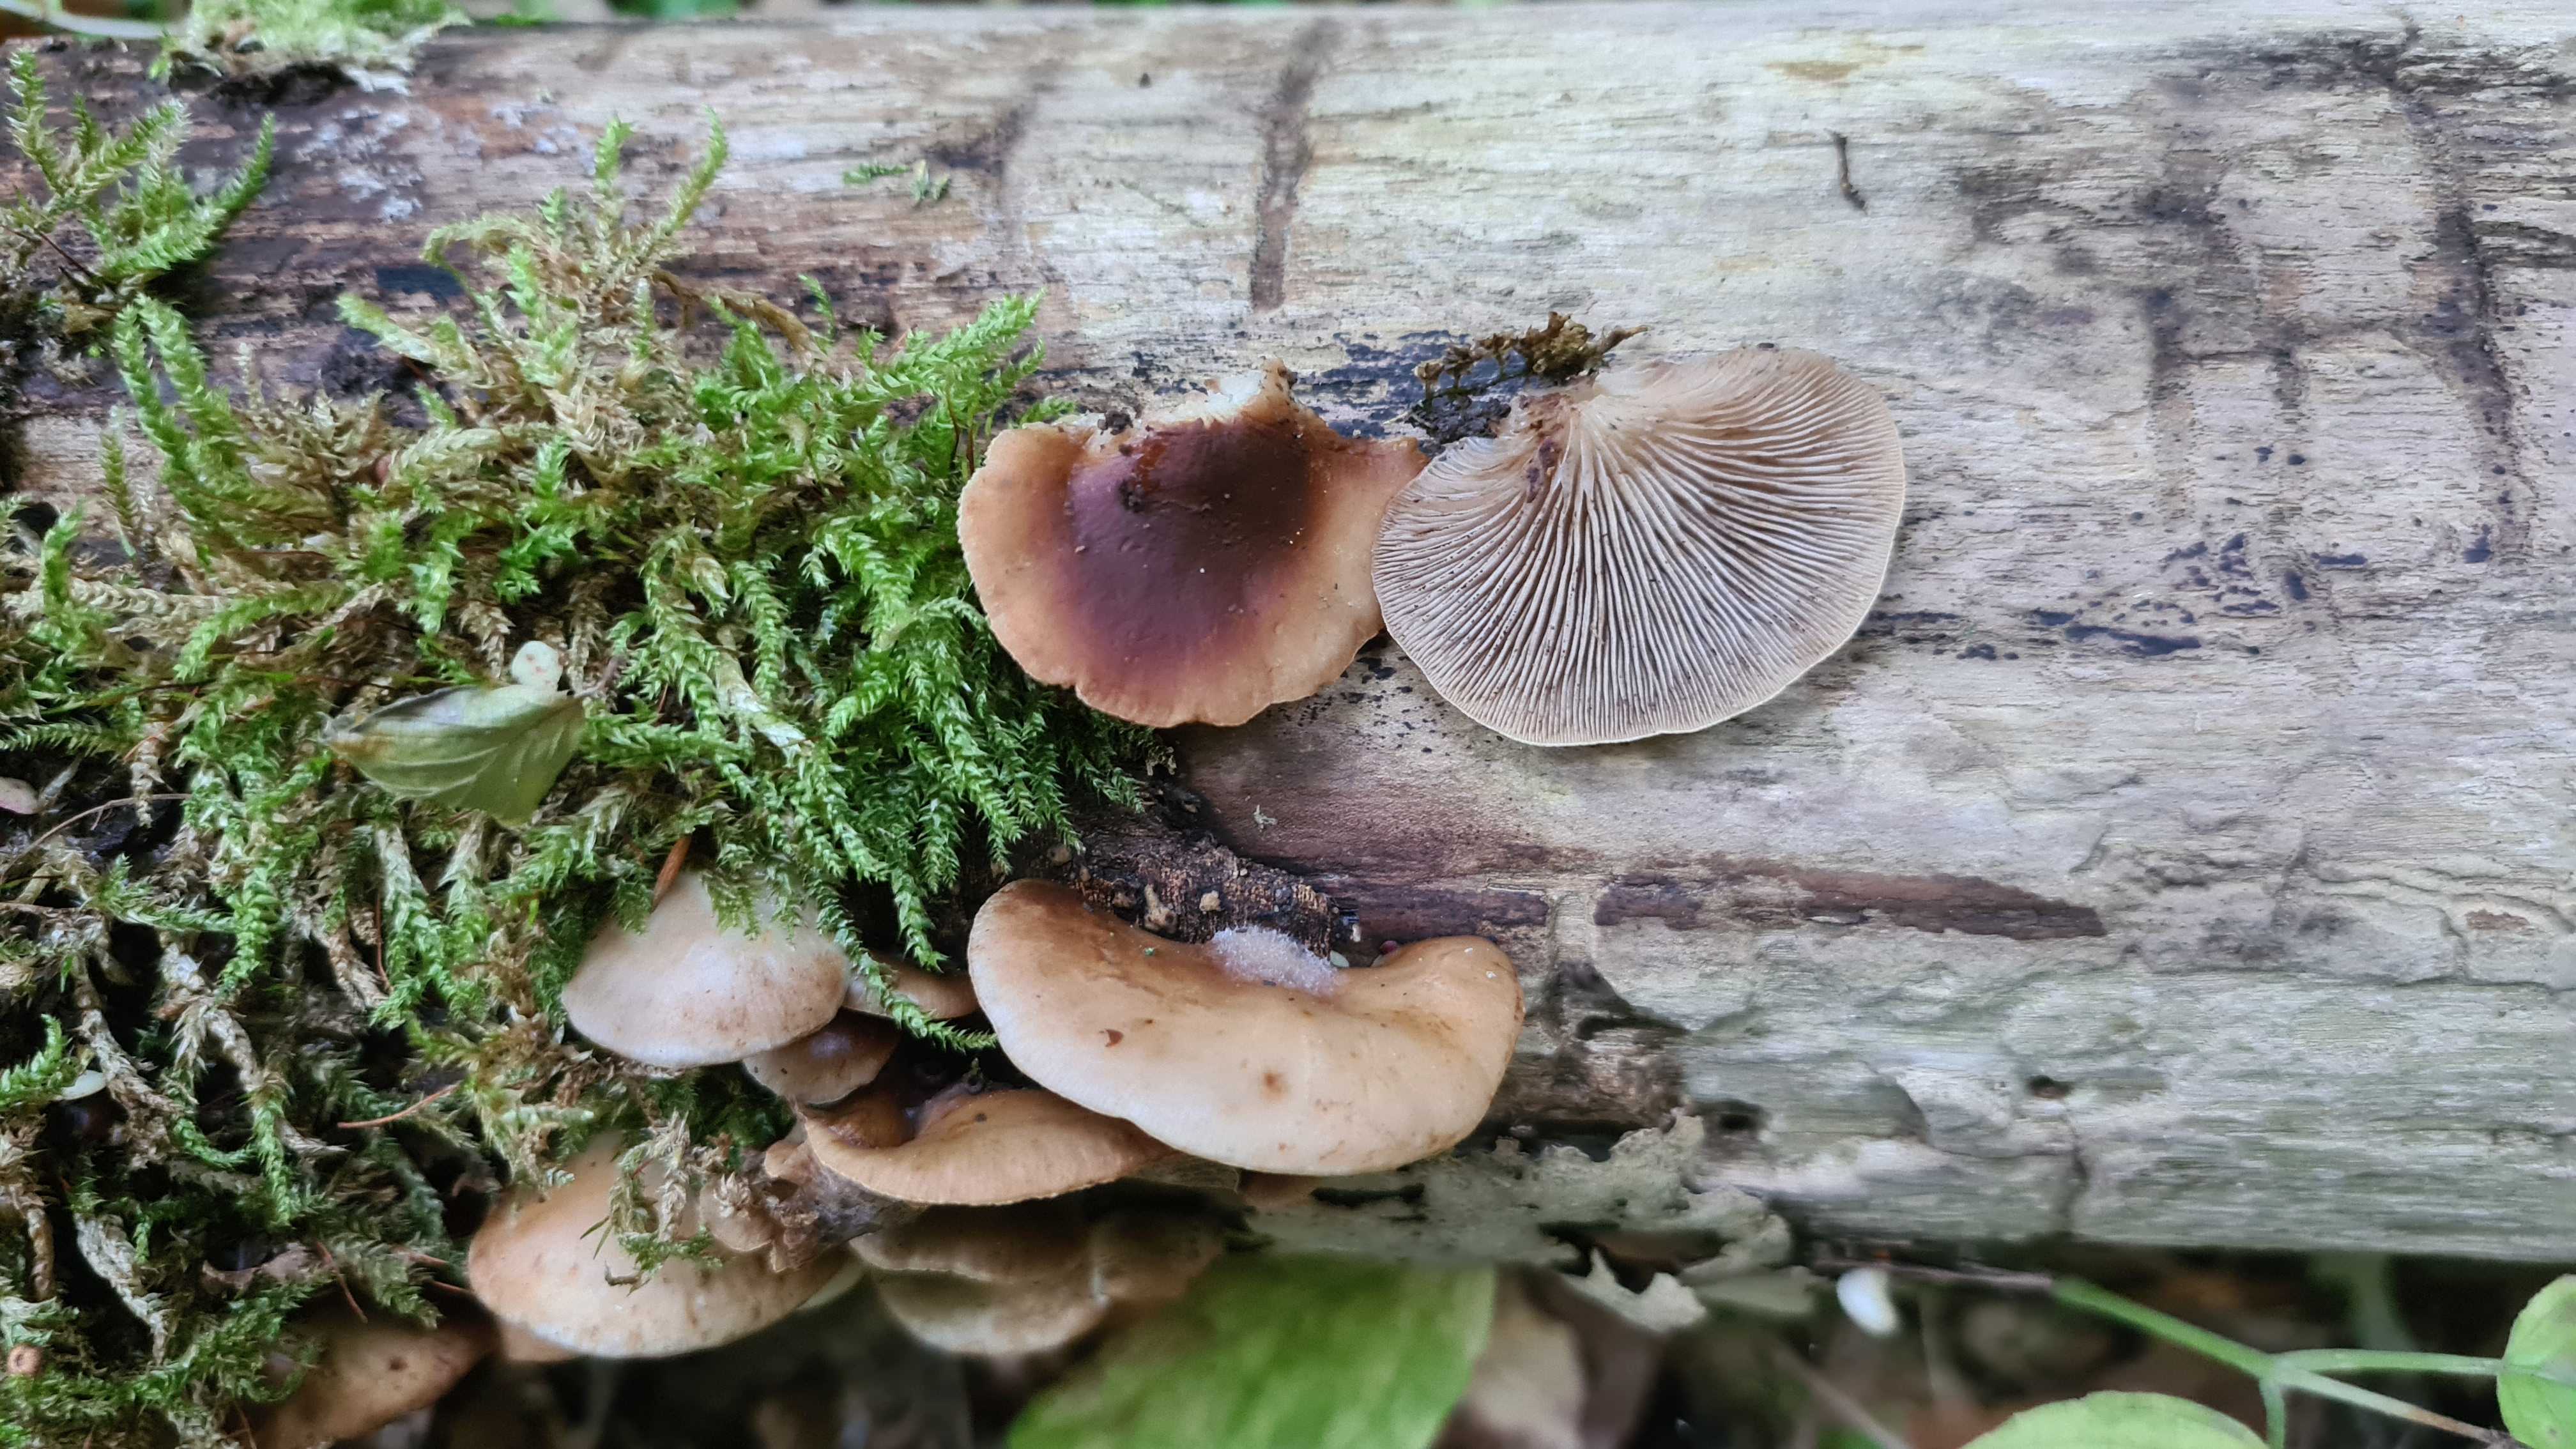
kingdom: Fungi
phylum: Basidiomycota
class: Agaricomycetes
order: Agaricales
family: Crepidotaceae
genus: Crepidotus
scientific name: Crepidotus mollis
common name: blød muslingesvamp
